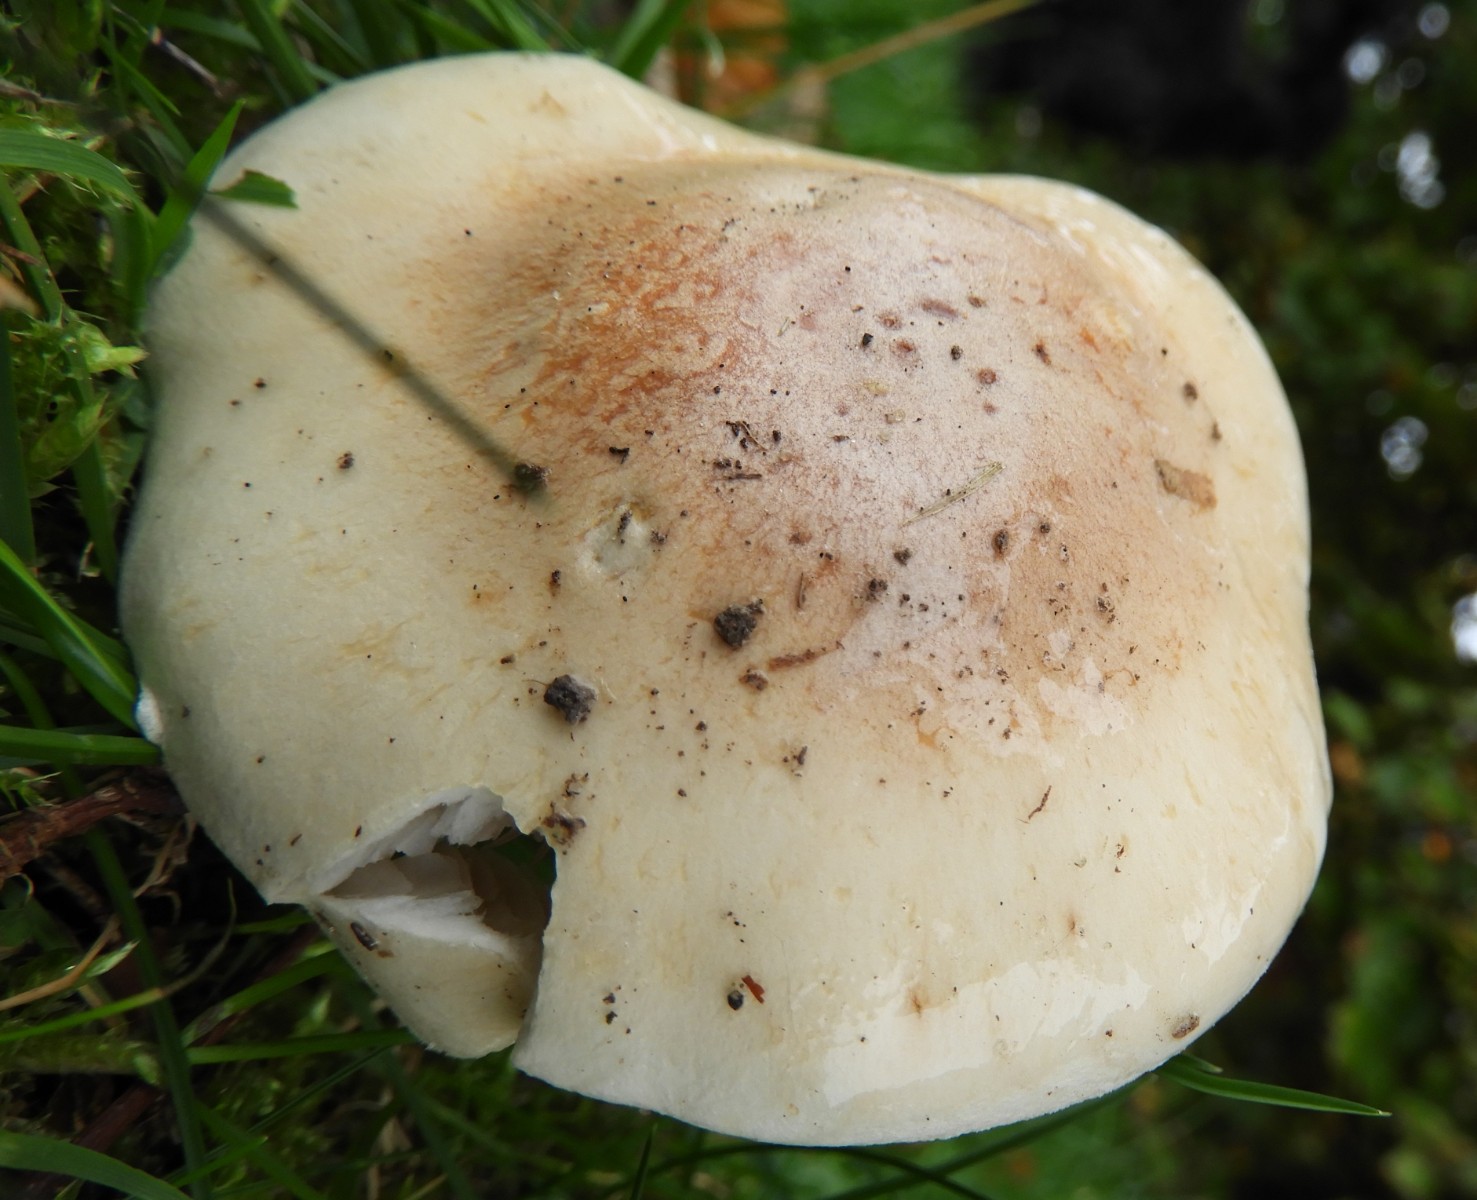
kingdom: Fungi
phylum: Basidiomycota
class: Agaricomycetes
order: Agaricales
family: Hymenogastraceae
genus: Hebeloma
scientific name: Hebeloma
